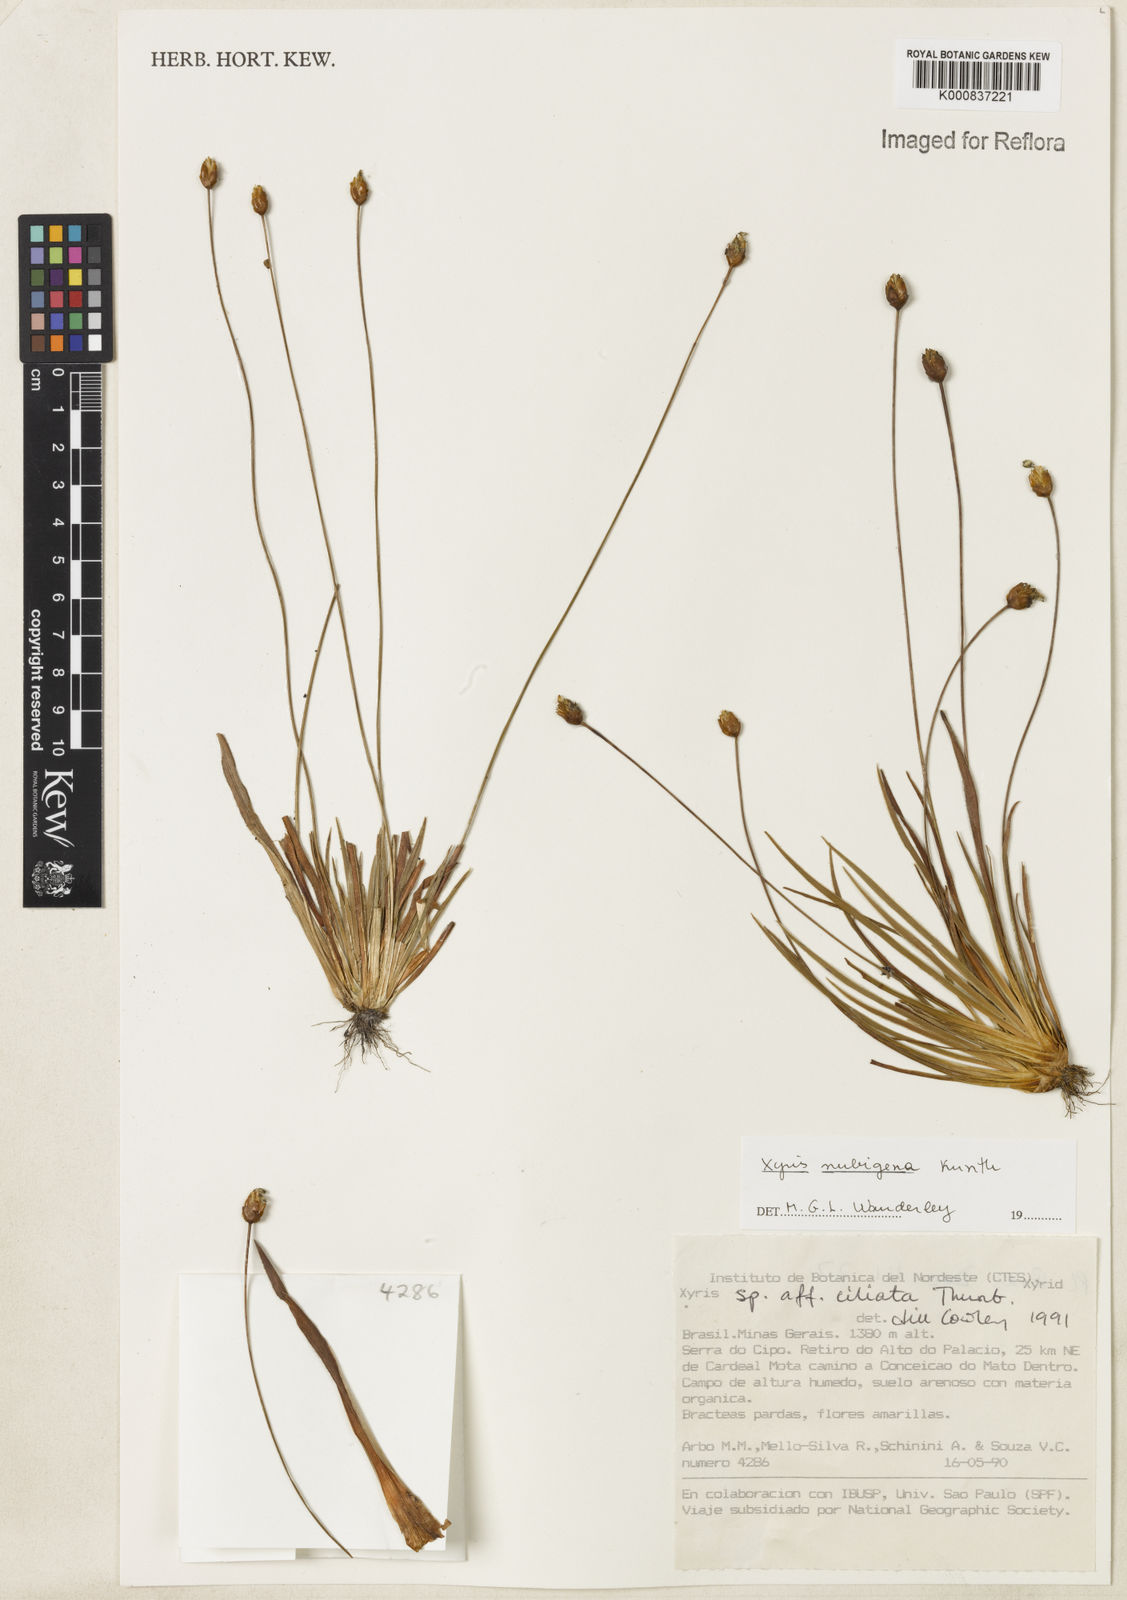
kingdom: Plantae
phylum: Tracheophyta
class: Liliopsida
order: Poales
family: Xyridaceae
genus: Xyris
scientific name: Xyris nubigena
